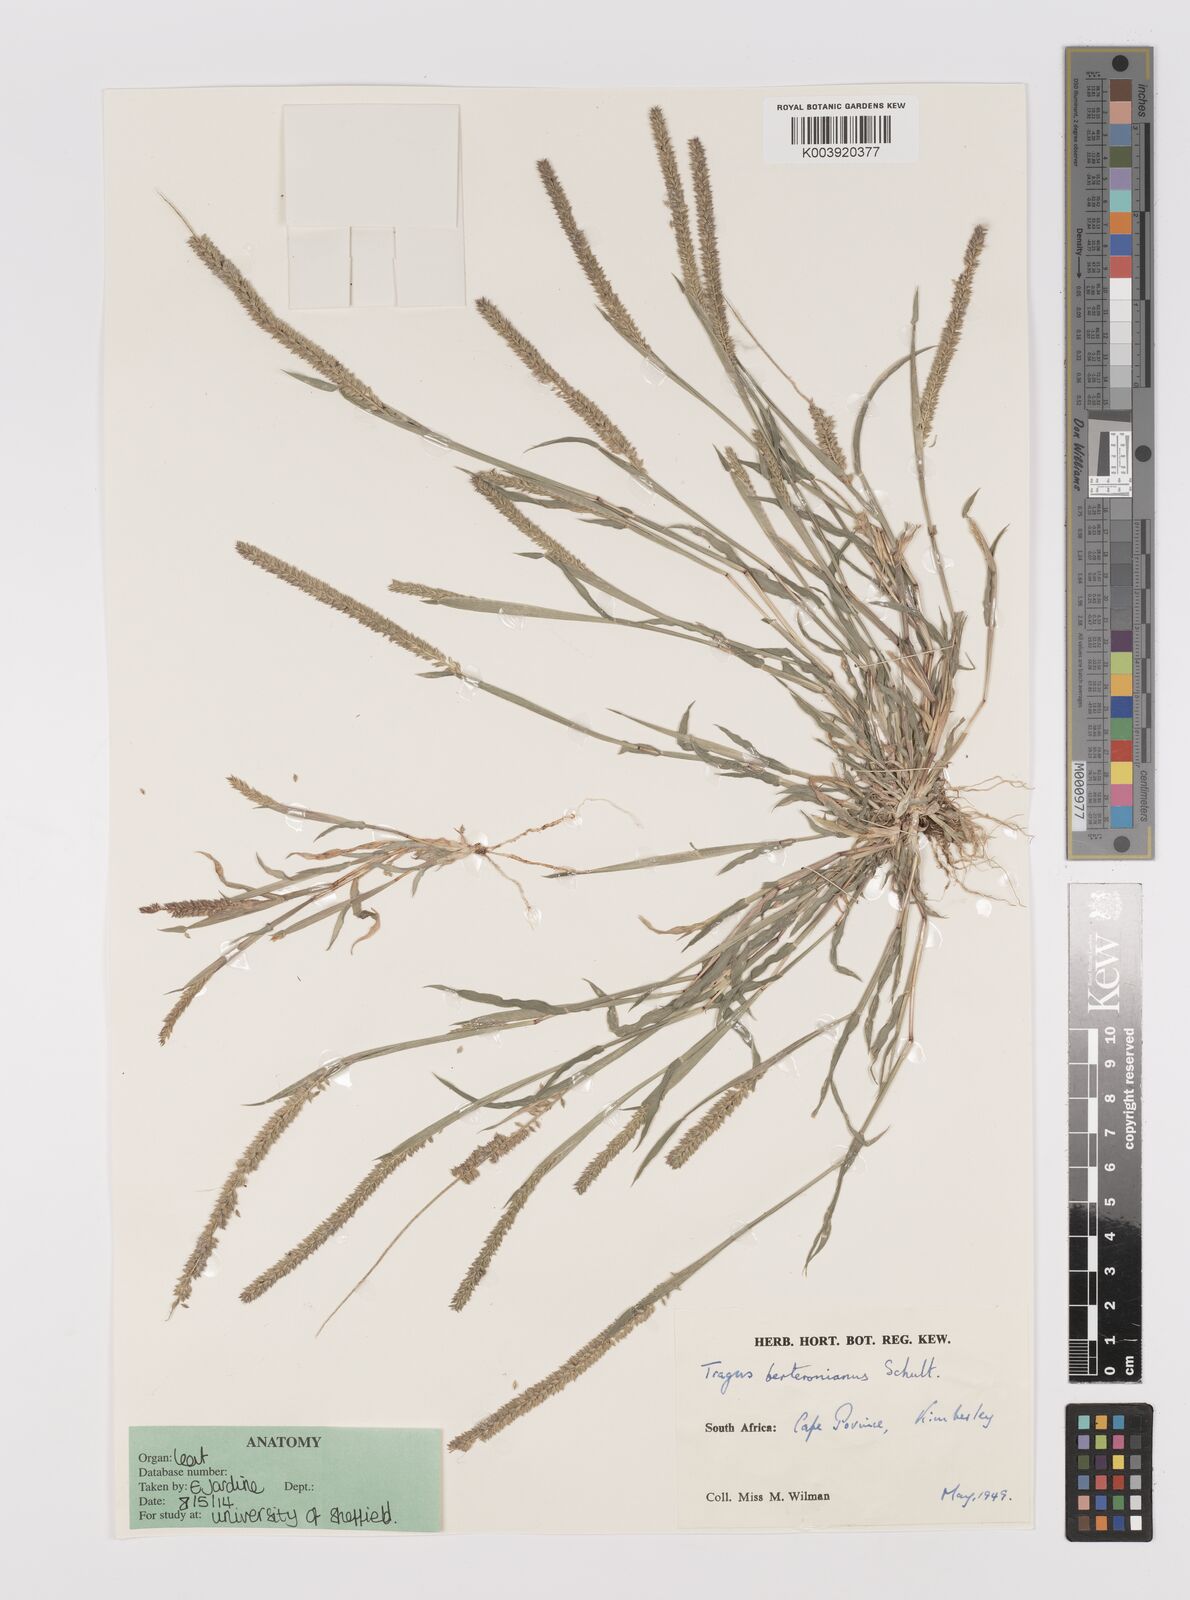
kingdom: Plantae
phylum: Tracheophyta
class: Liliopsida
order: Poales
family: Poaceae
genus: Tragus
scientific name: Tragus berteronianus
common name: African bur-grass
